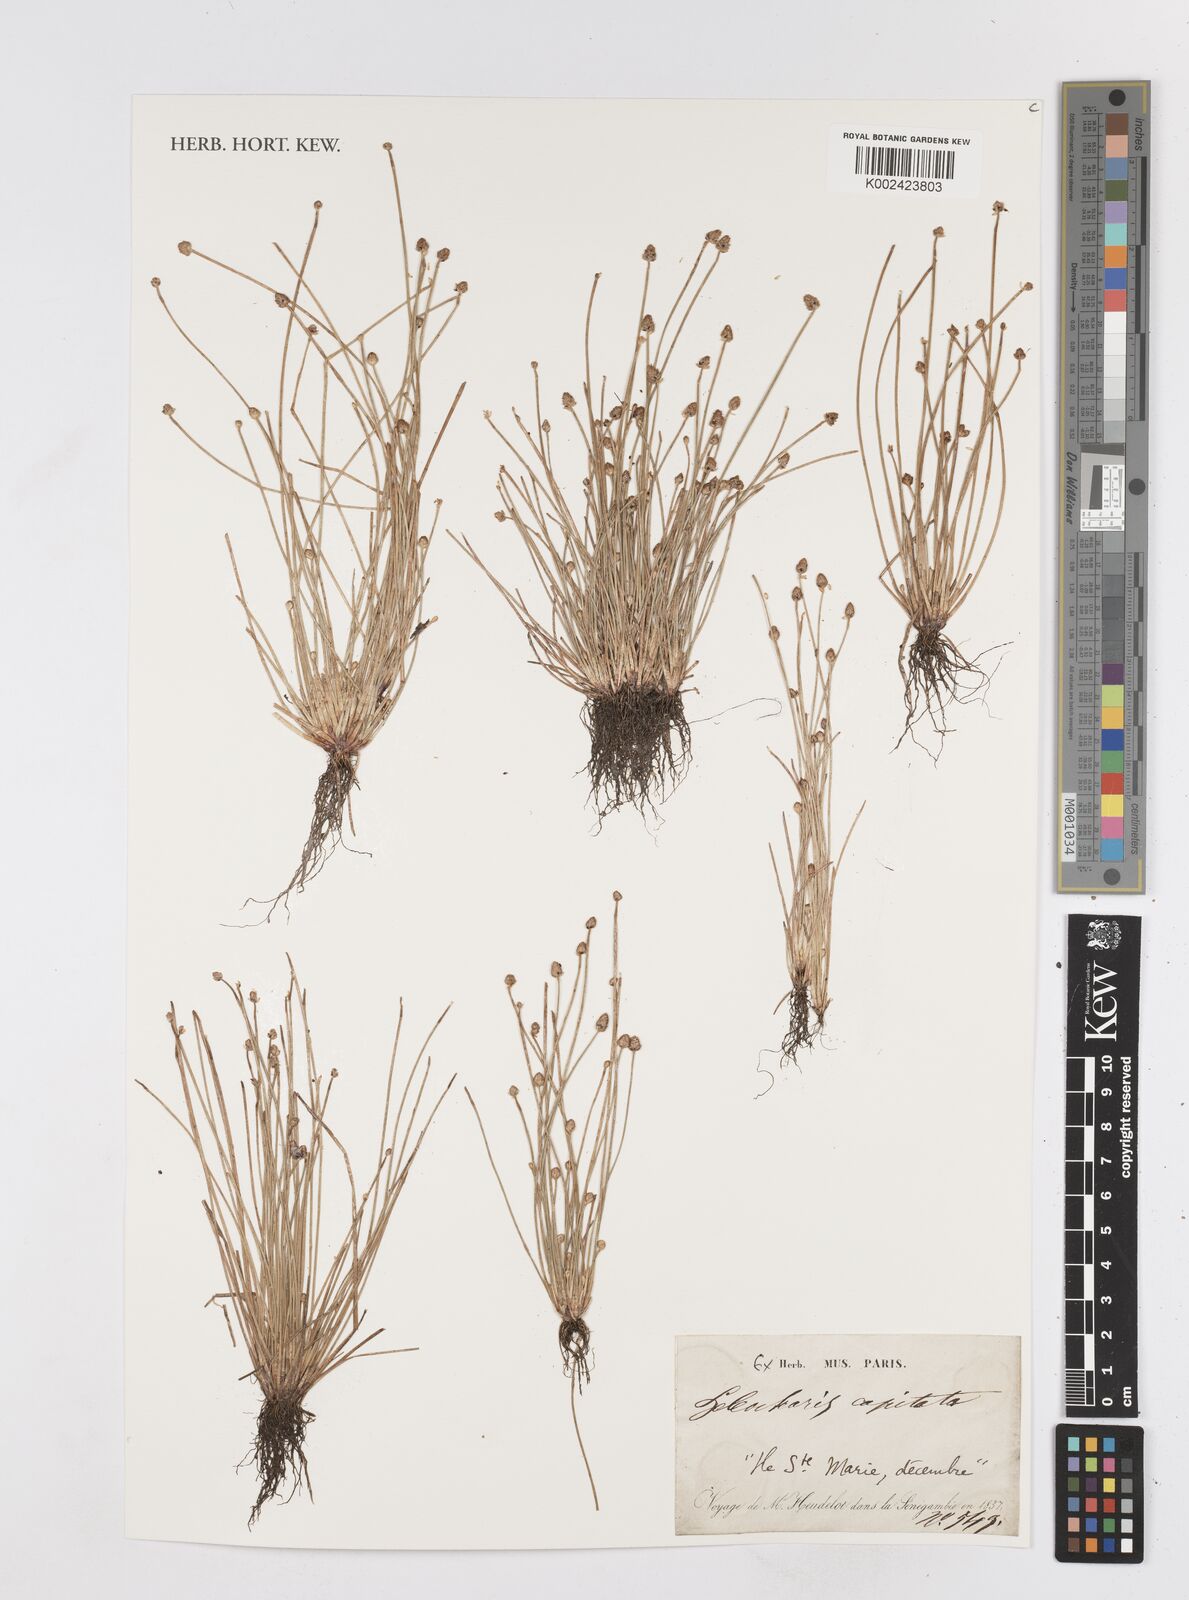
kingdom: Plantae
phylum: Tracheophyta
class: Liliopsida
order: Poales
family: Cyperaceae
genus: Eleocharis
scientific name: Eleocharis geniculata
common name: Canada spikesedge
